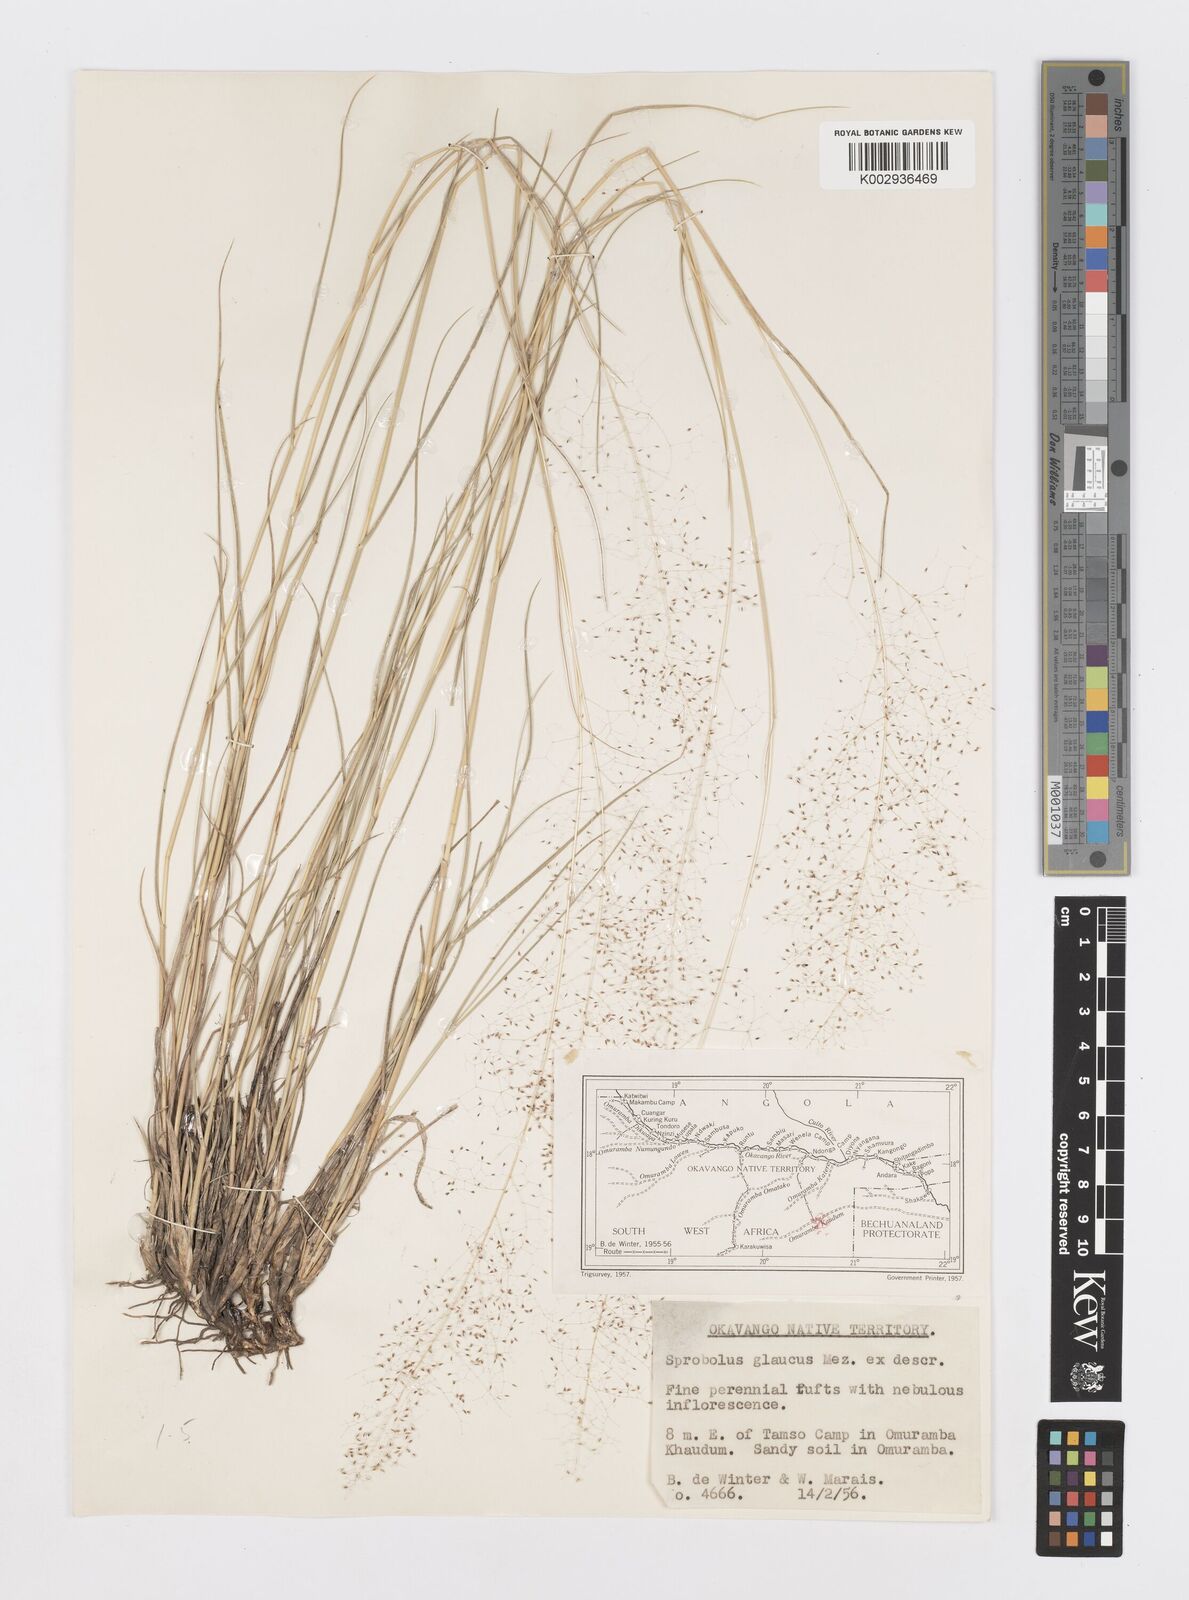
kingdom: Plantae
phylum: Tracheophyta
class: Liliopsida
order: Poales
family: Poaceae
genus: Sporobolus
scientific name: Sporobolus acinifolius
